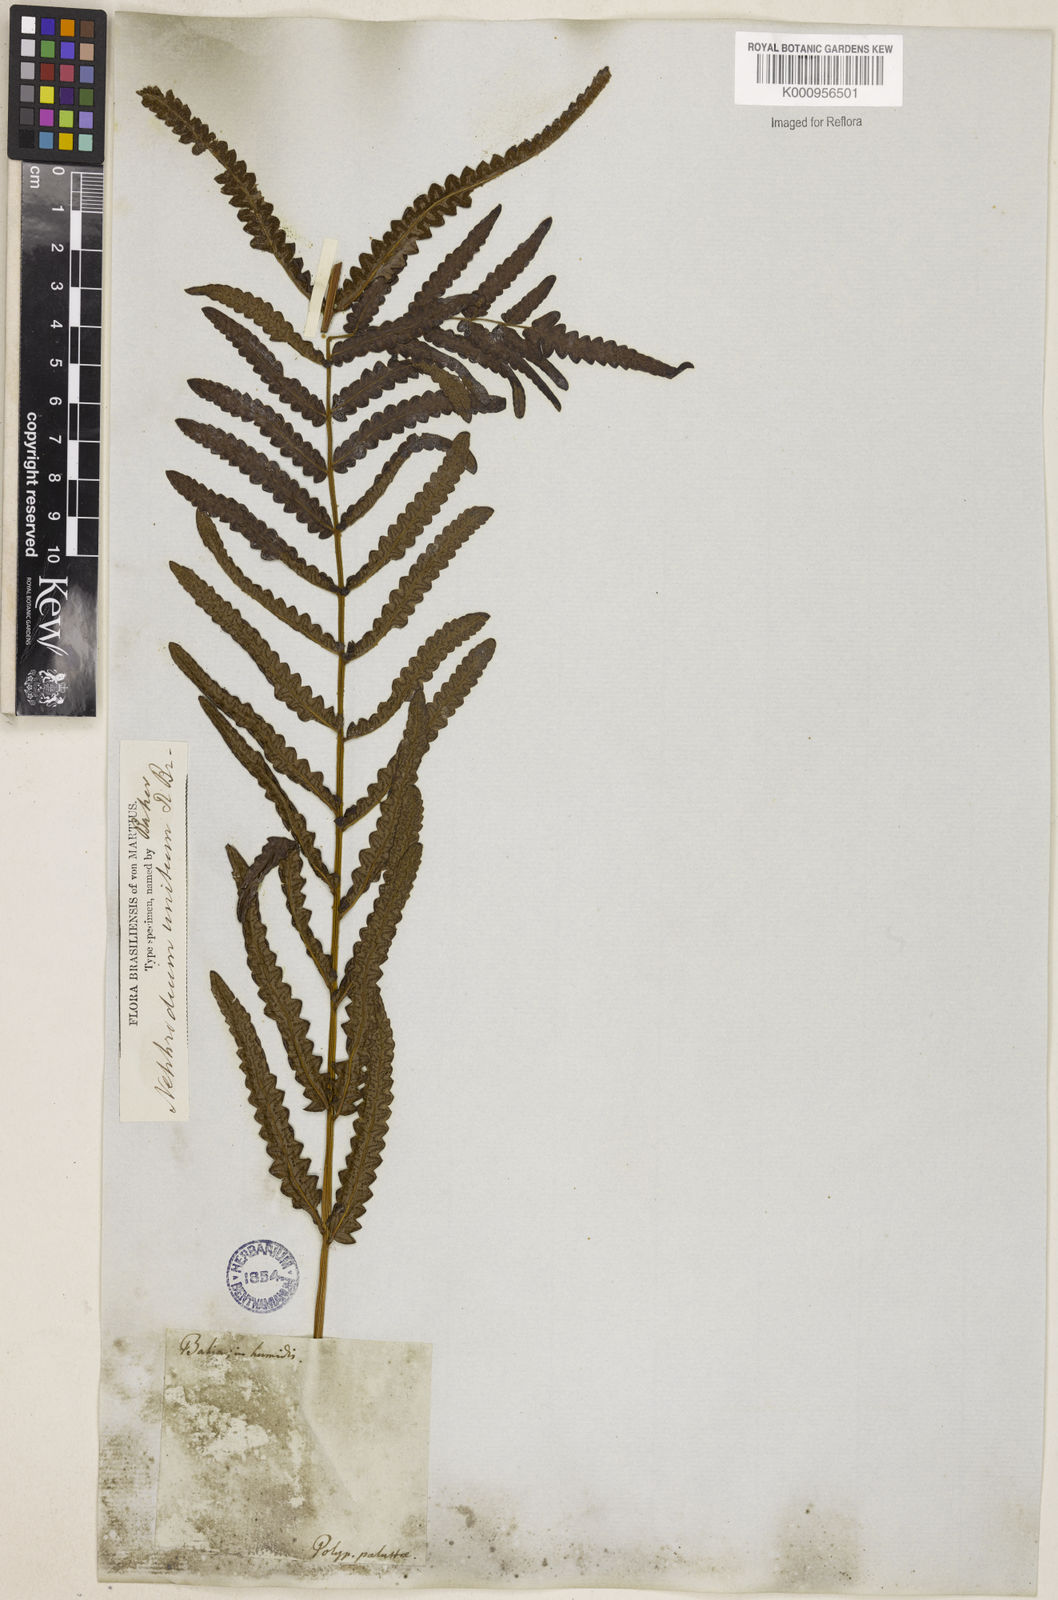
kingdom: Plantae
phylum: Tracheophyta
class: Polypodiopsida
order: Polypodiales
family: Thelypteridaceae
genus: Cyclosorus
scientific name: Cyclosorus interruptus
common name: Neke fern
